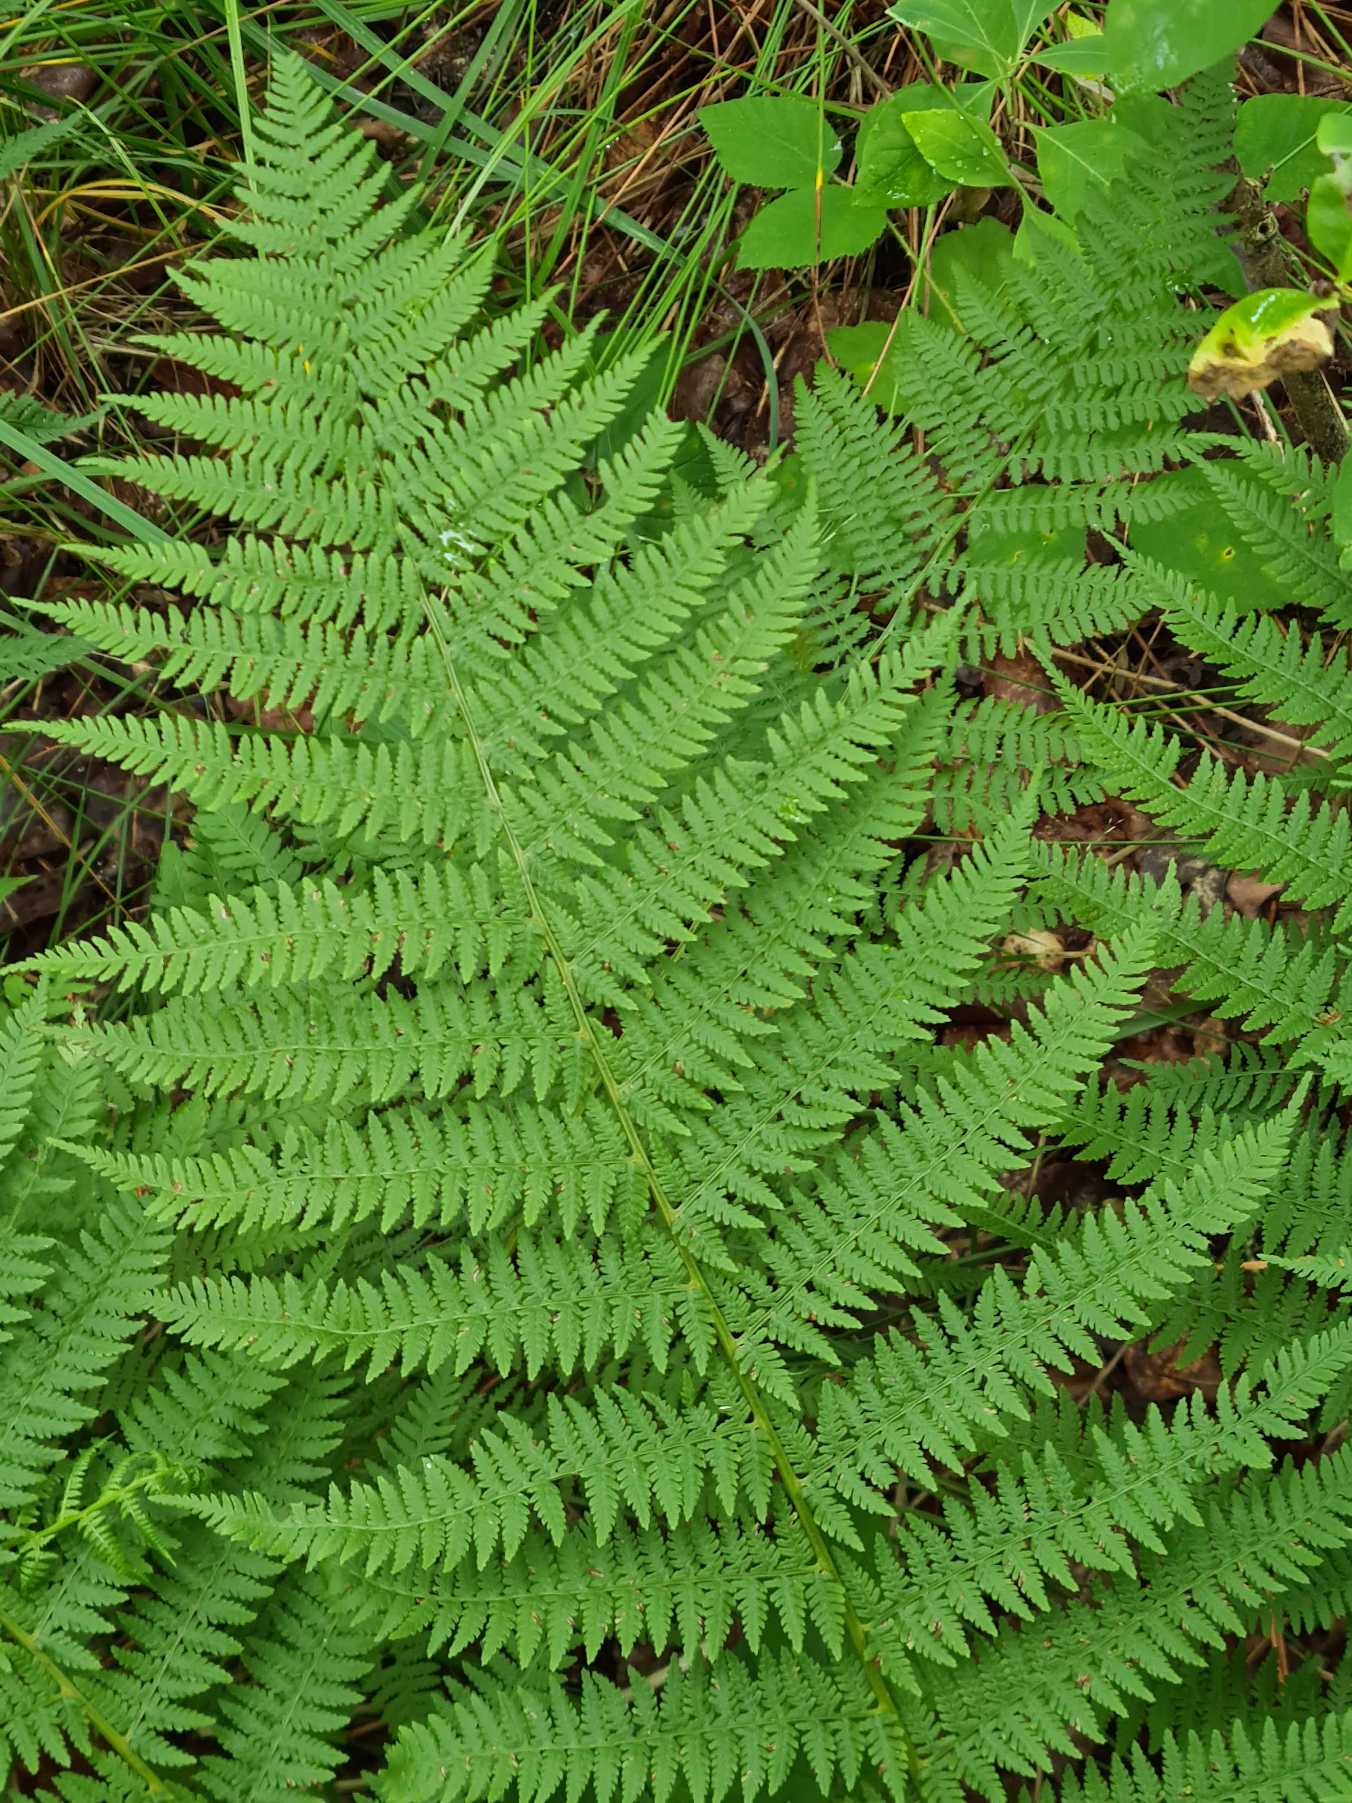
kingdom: Plantae
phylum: Tracheophyta
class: Polypodiopsida
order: Polypodiales
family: Athyriaceae
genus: Athyrium
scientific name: Athyrium filix-femina
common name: Fjerbregne
